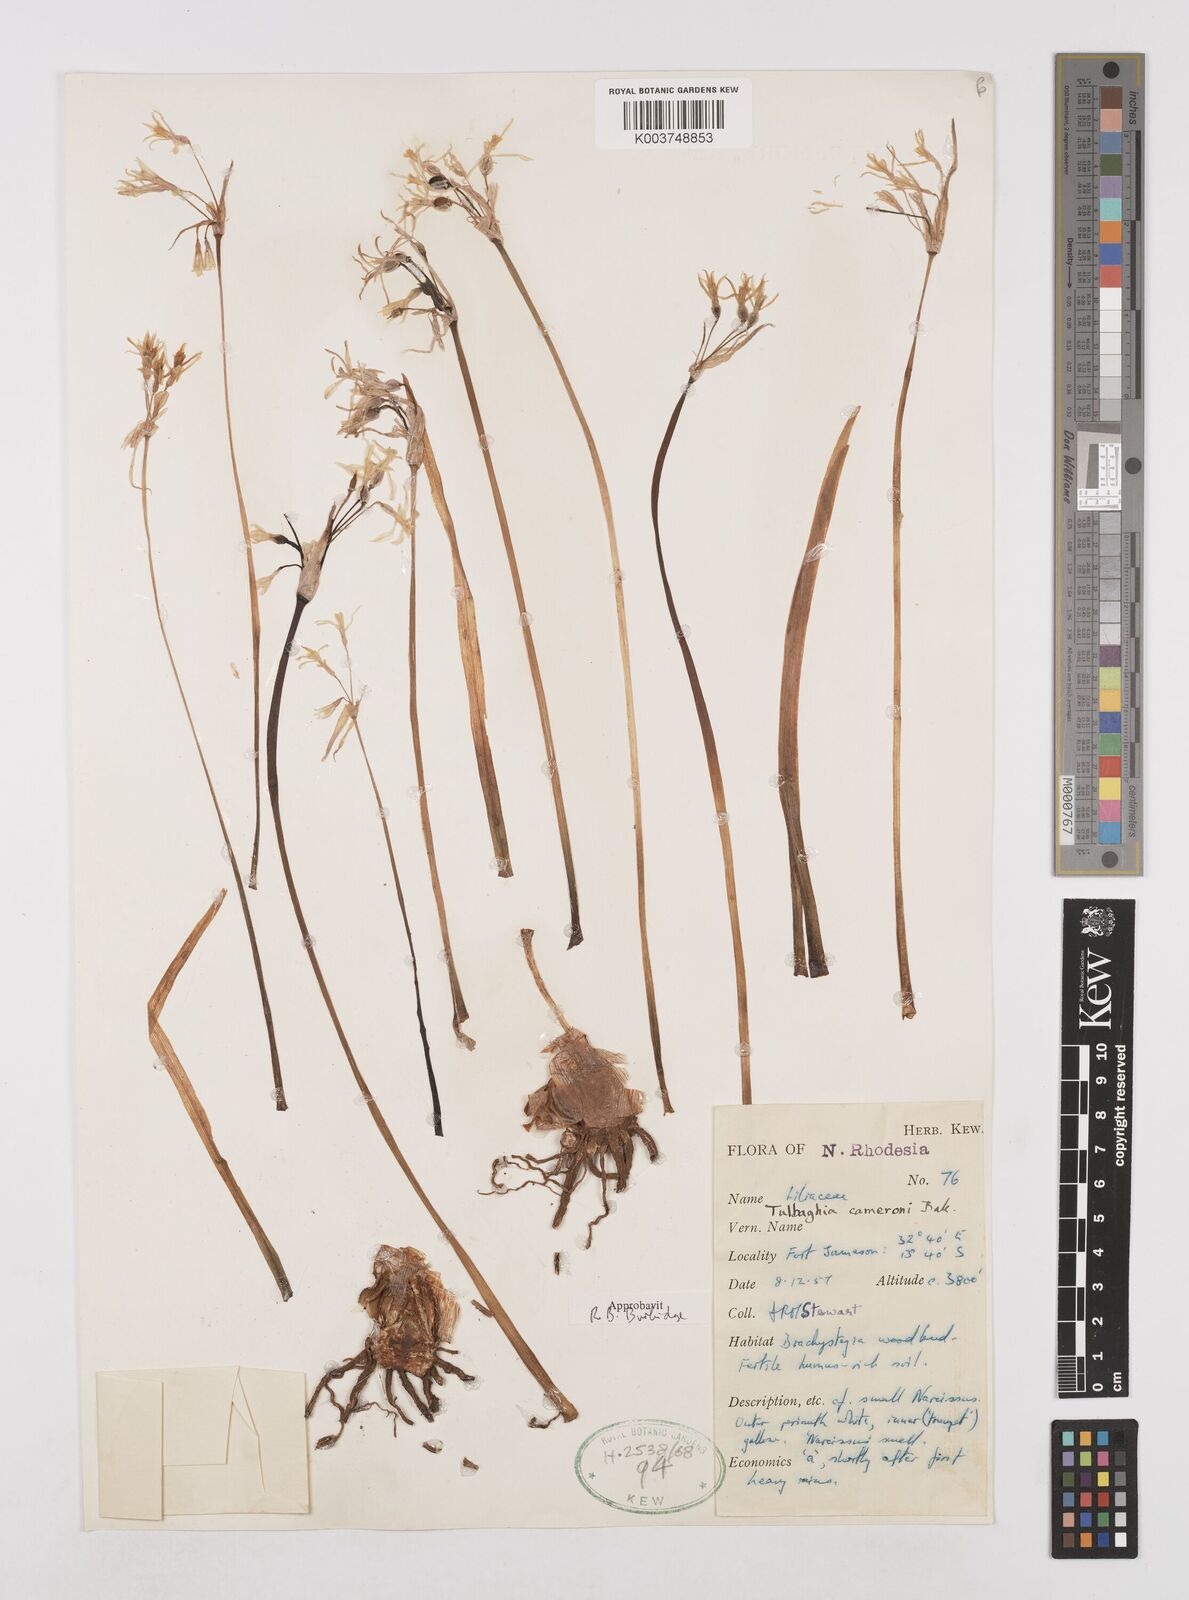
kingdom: Plantae
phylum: Tracheophyta
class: Liliopsida
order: Asparagales
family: Amaryllidaceae
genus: Tulbaghia
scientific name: Tulbaghia cameronii
